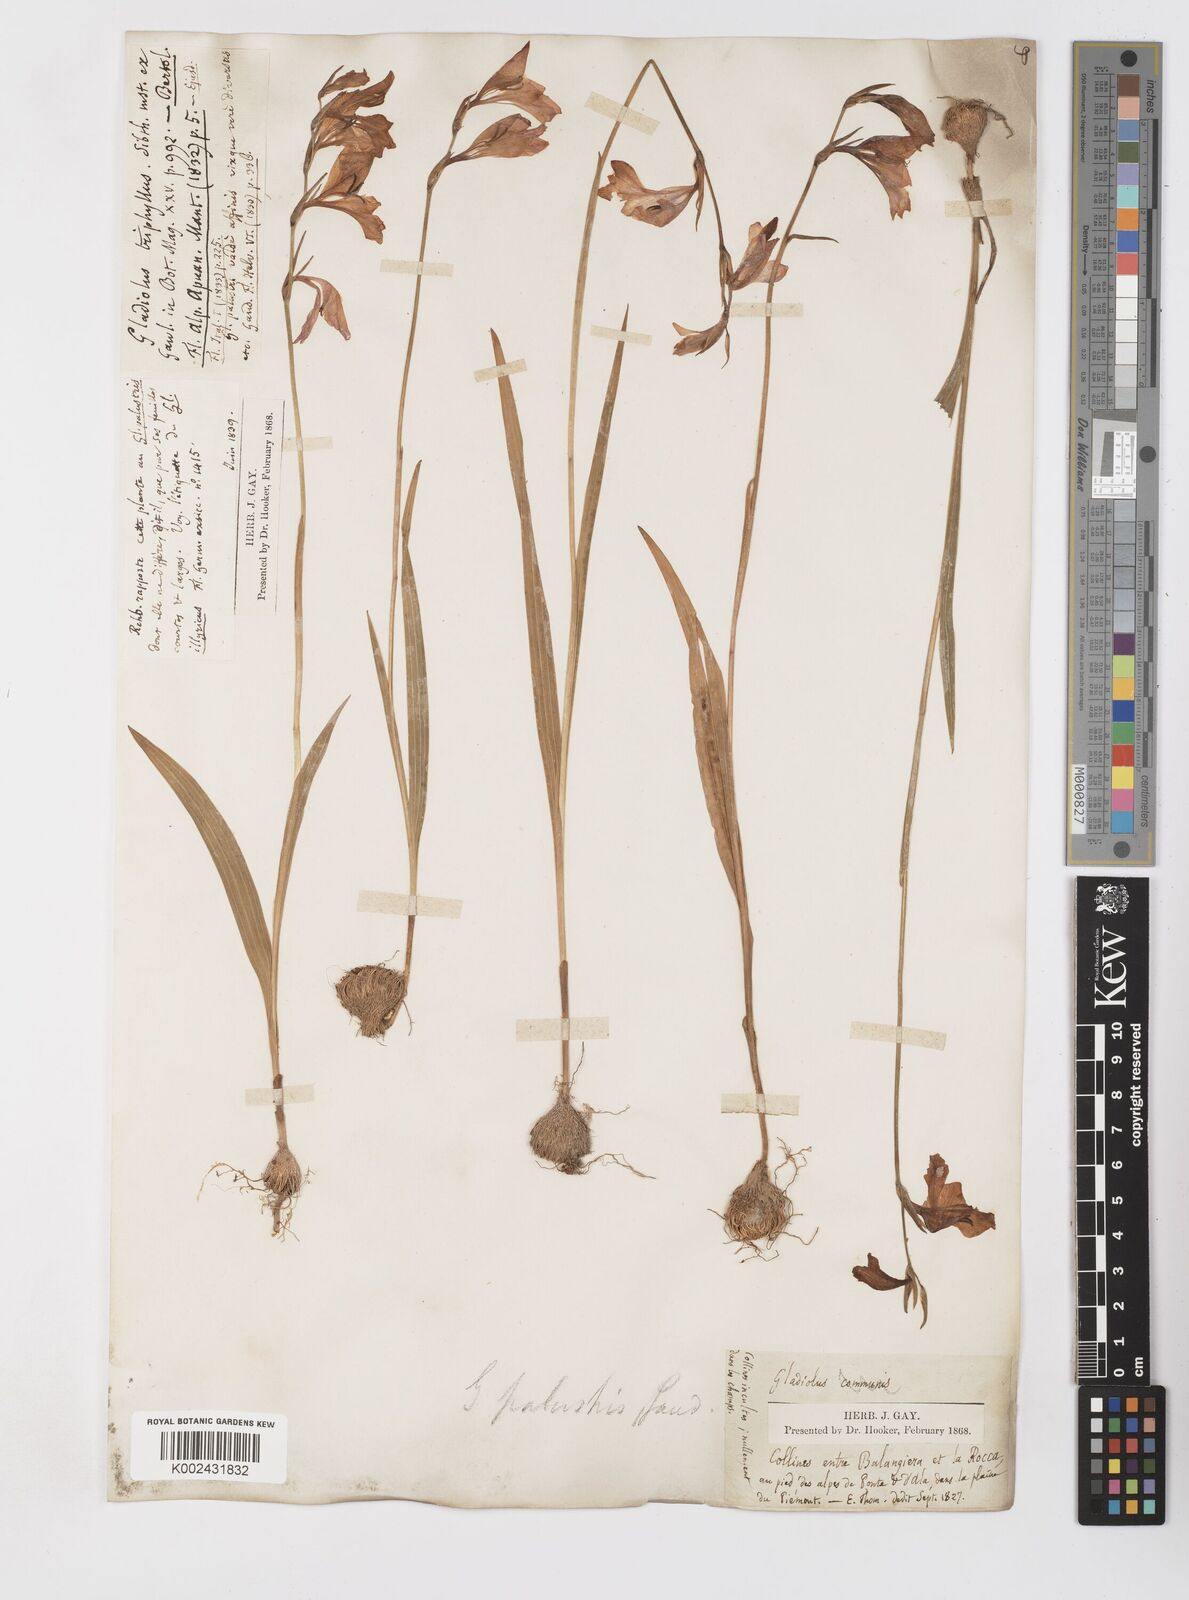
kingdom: Plantae
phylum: Tracheophyta
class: Liliopsida
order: Asparagales
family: Iridaceae
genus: Gladiolus
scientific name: Gladiolus palustris
